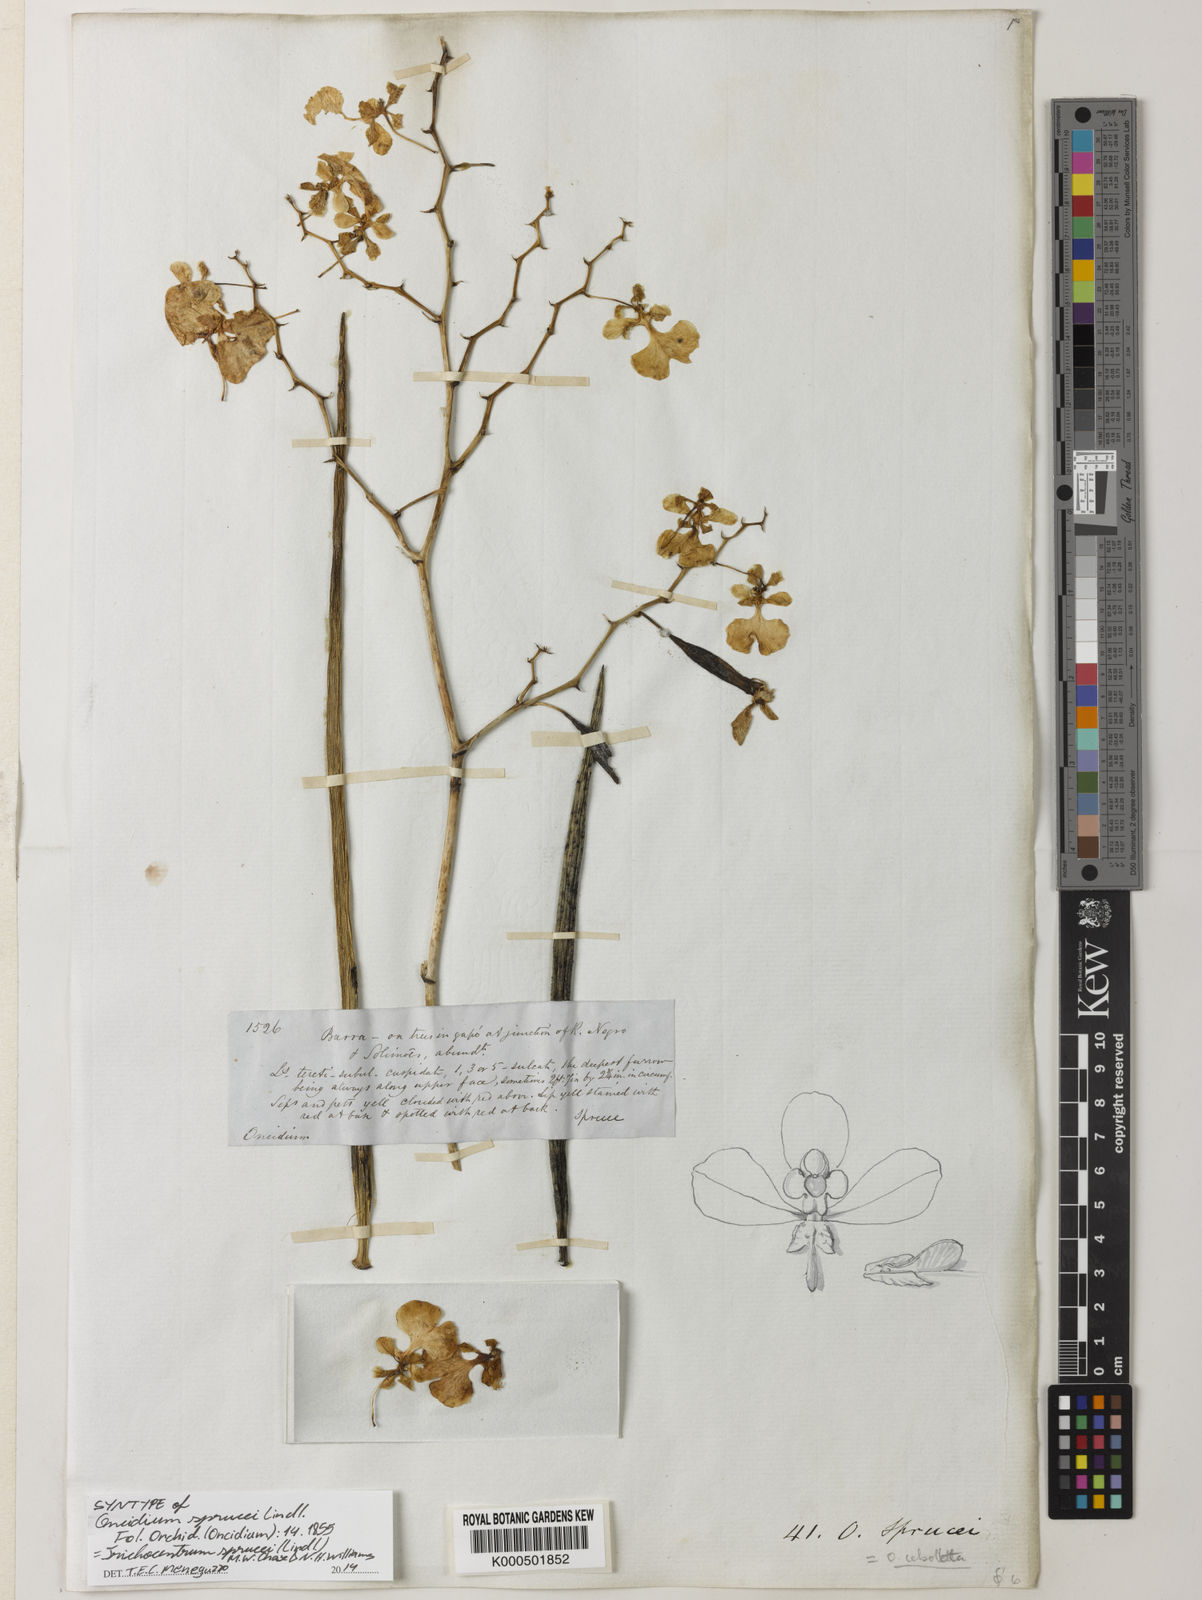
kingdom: Plantae
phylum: Tracheophyta
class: Liliopsida
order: Asparagales
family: Orchidaceae
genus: Trichocentrum
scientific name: Trichocentrum sprucei
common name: Rat-tail orchid
